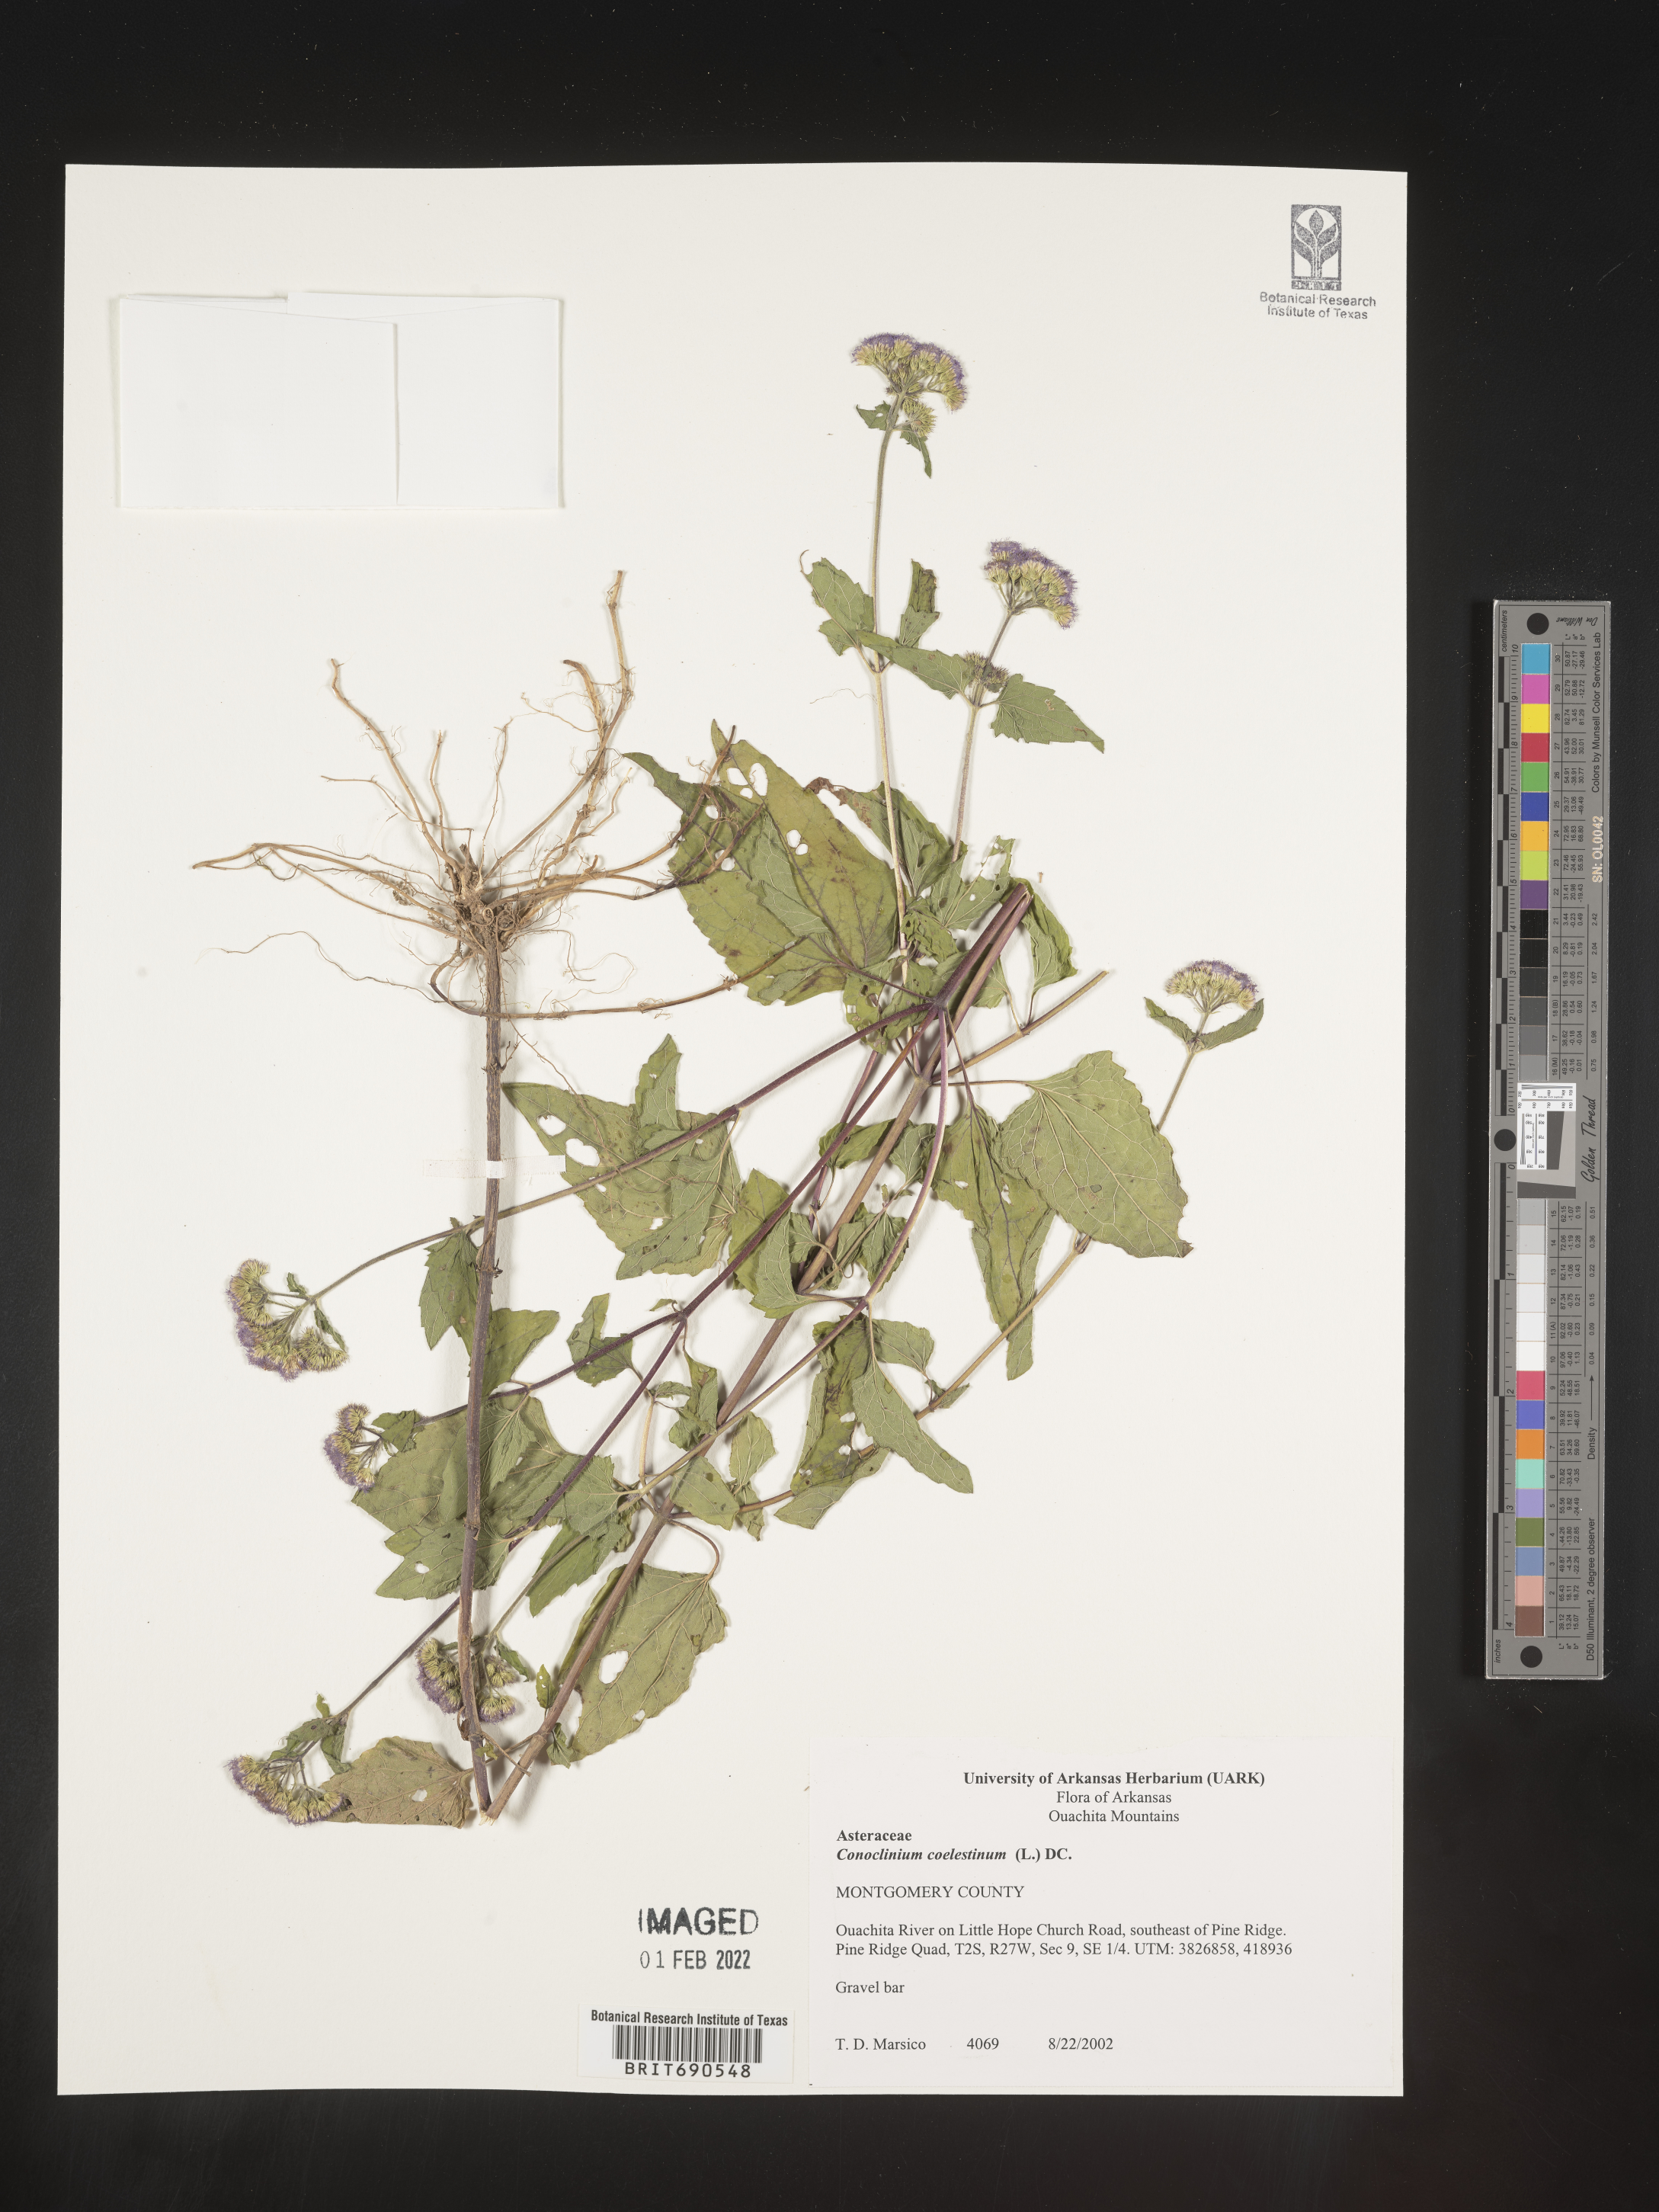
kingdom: Plantae
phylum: Tracheophyta
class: Magnoliopsida
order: Asterales
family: Asteraceae
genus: Conoclinium
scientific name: Conoclinium coelestinum
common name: Blue mistflower
